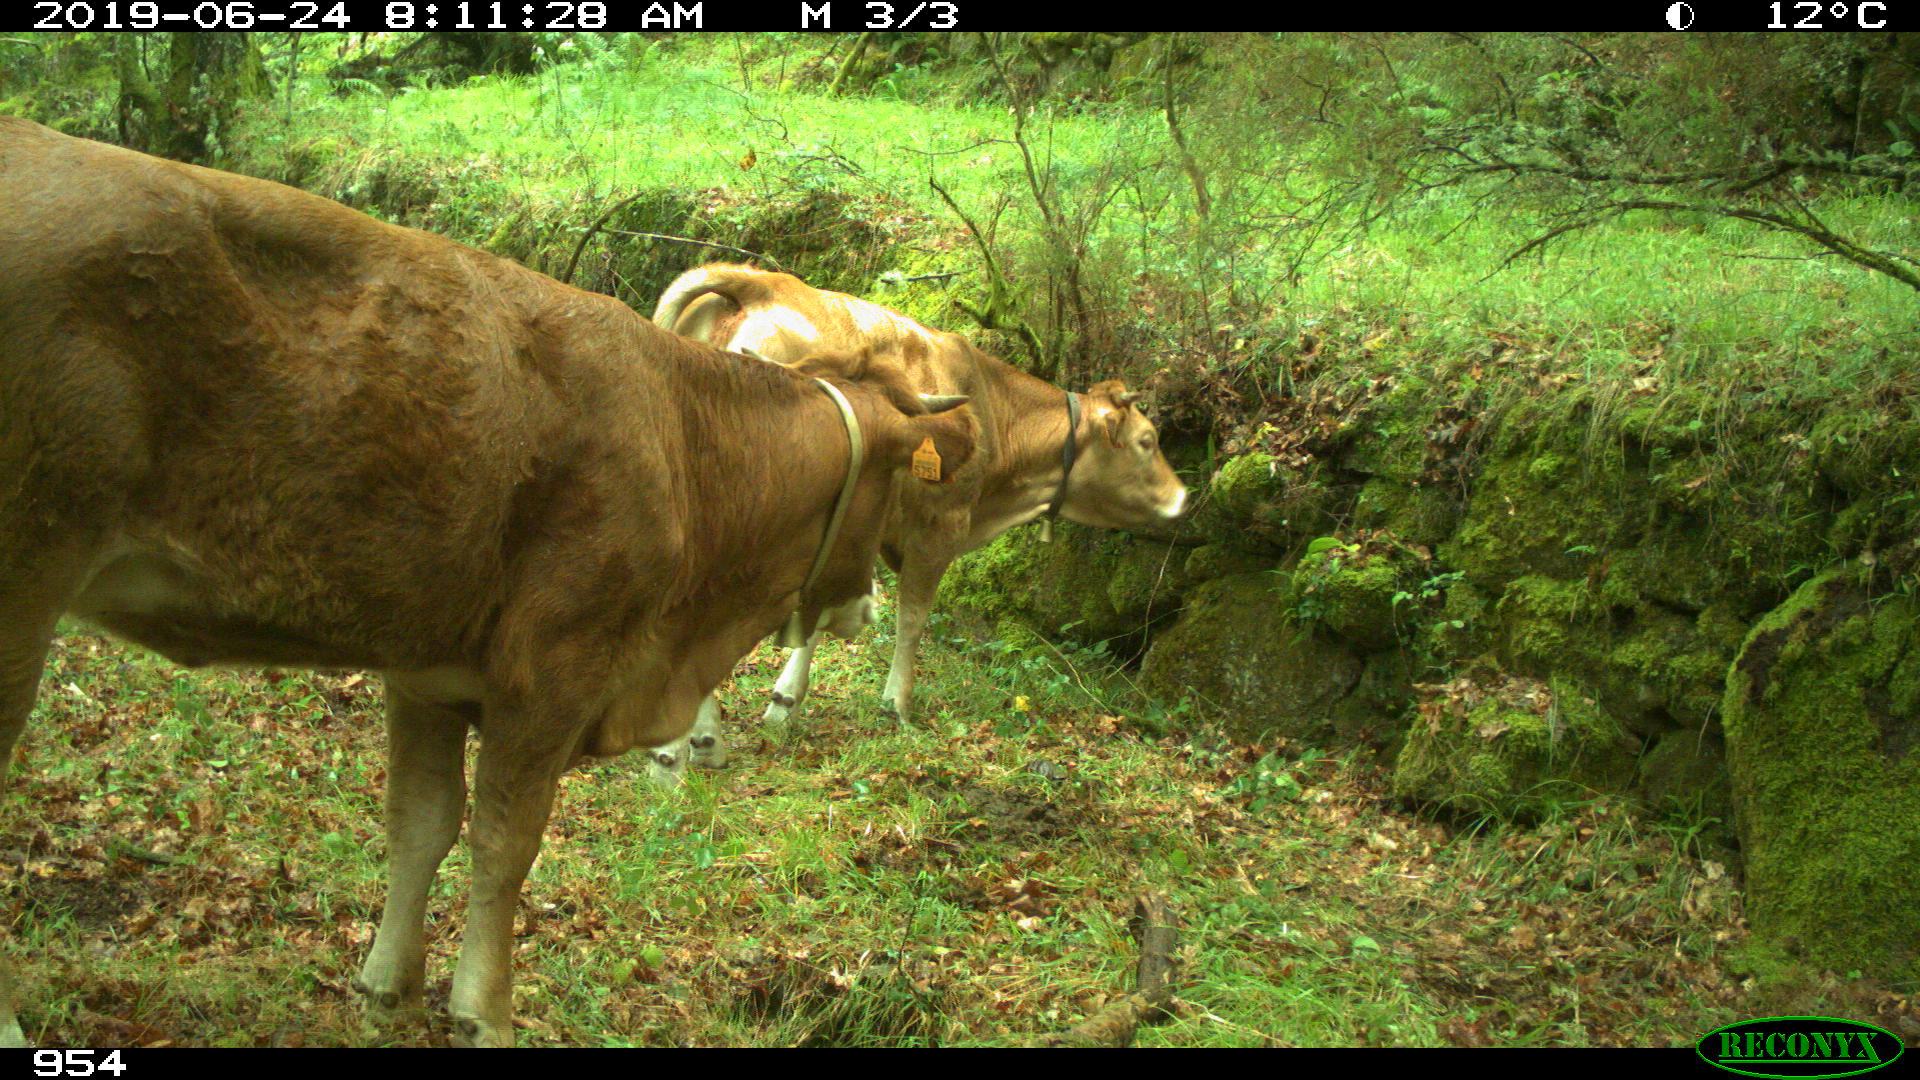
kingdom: Animalia
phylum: Chordata
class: Mammalia
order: Artiodactyla
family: Bovidae
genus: Bos
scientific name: Bos taurus
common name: Domesticated cattle
